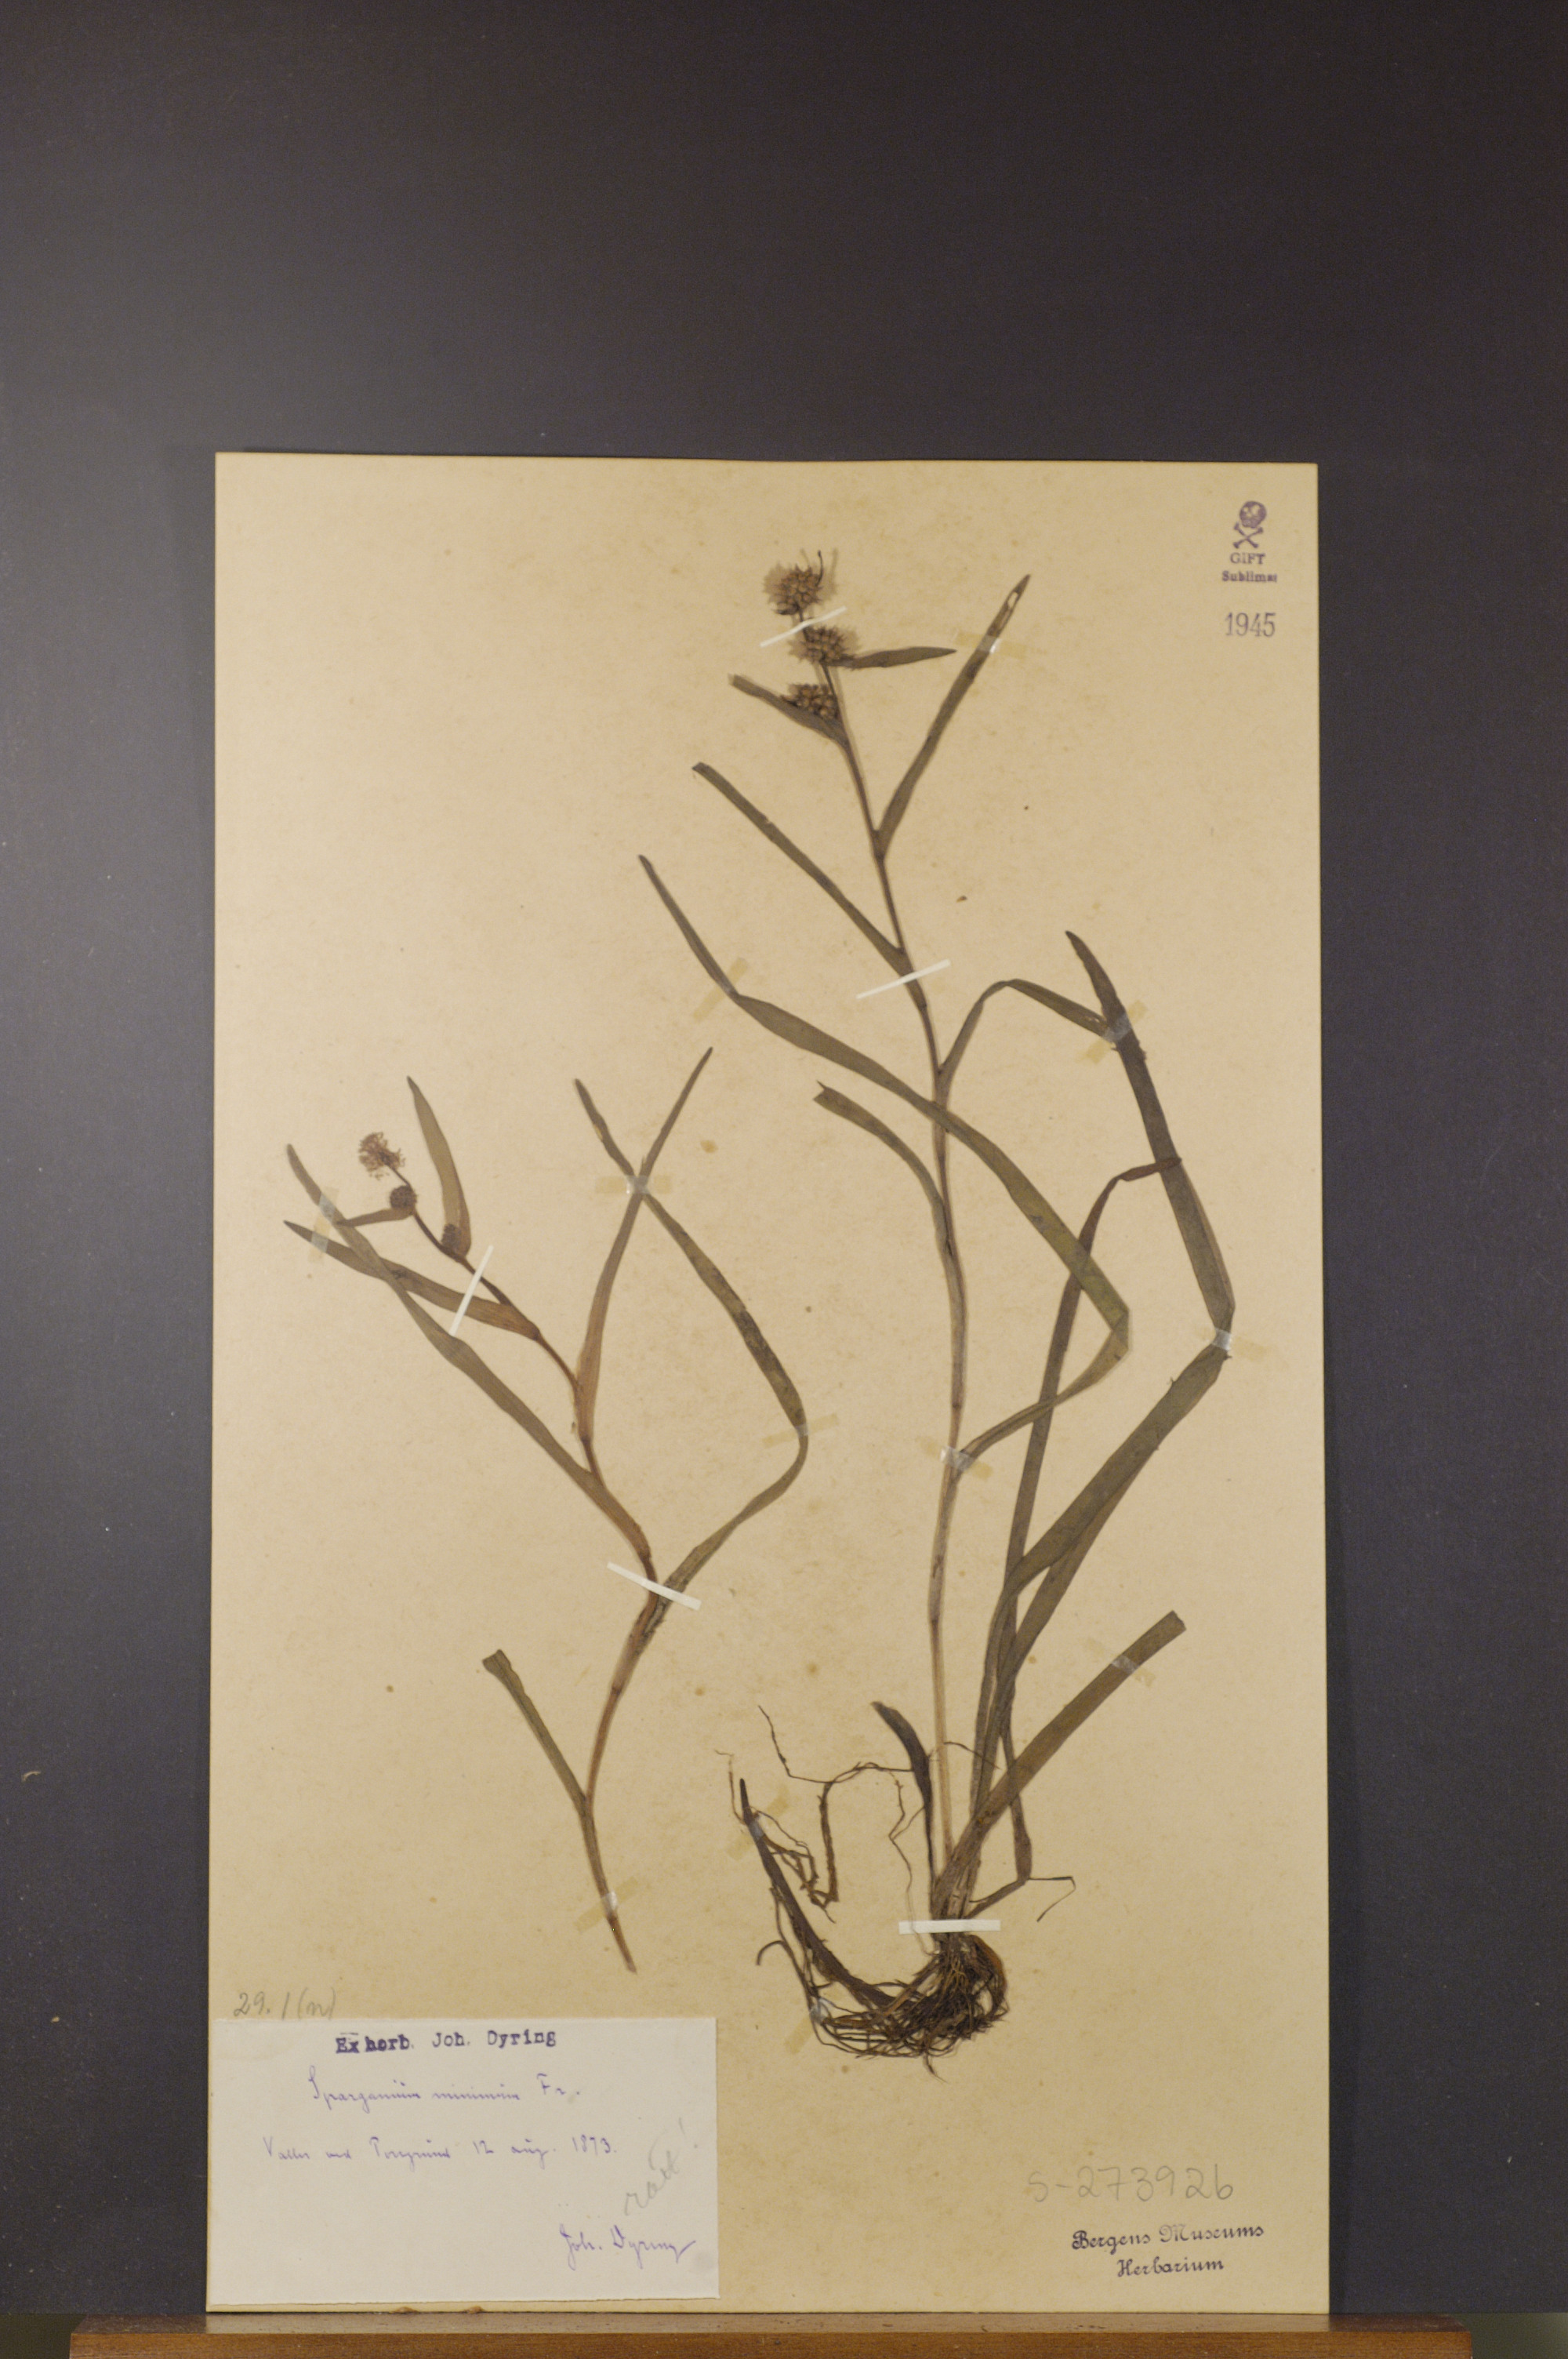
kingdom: Plantae
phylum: Tracheophyta
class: Liliopsida
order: Poales
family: Typhaceae
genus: Sparganium
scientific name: Sparganium natans
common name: Least bur-reed
